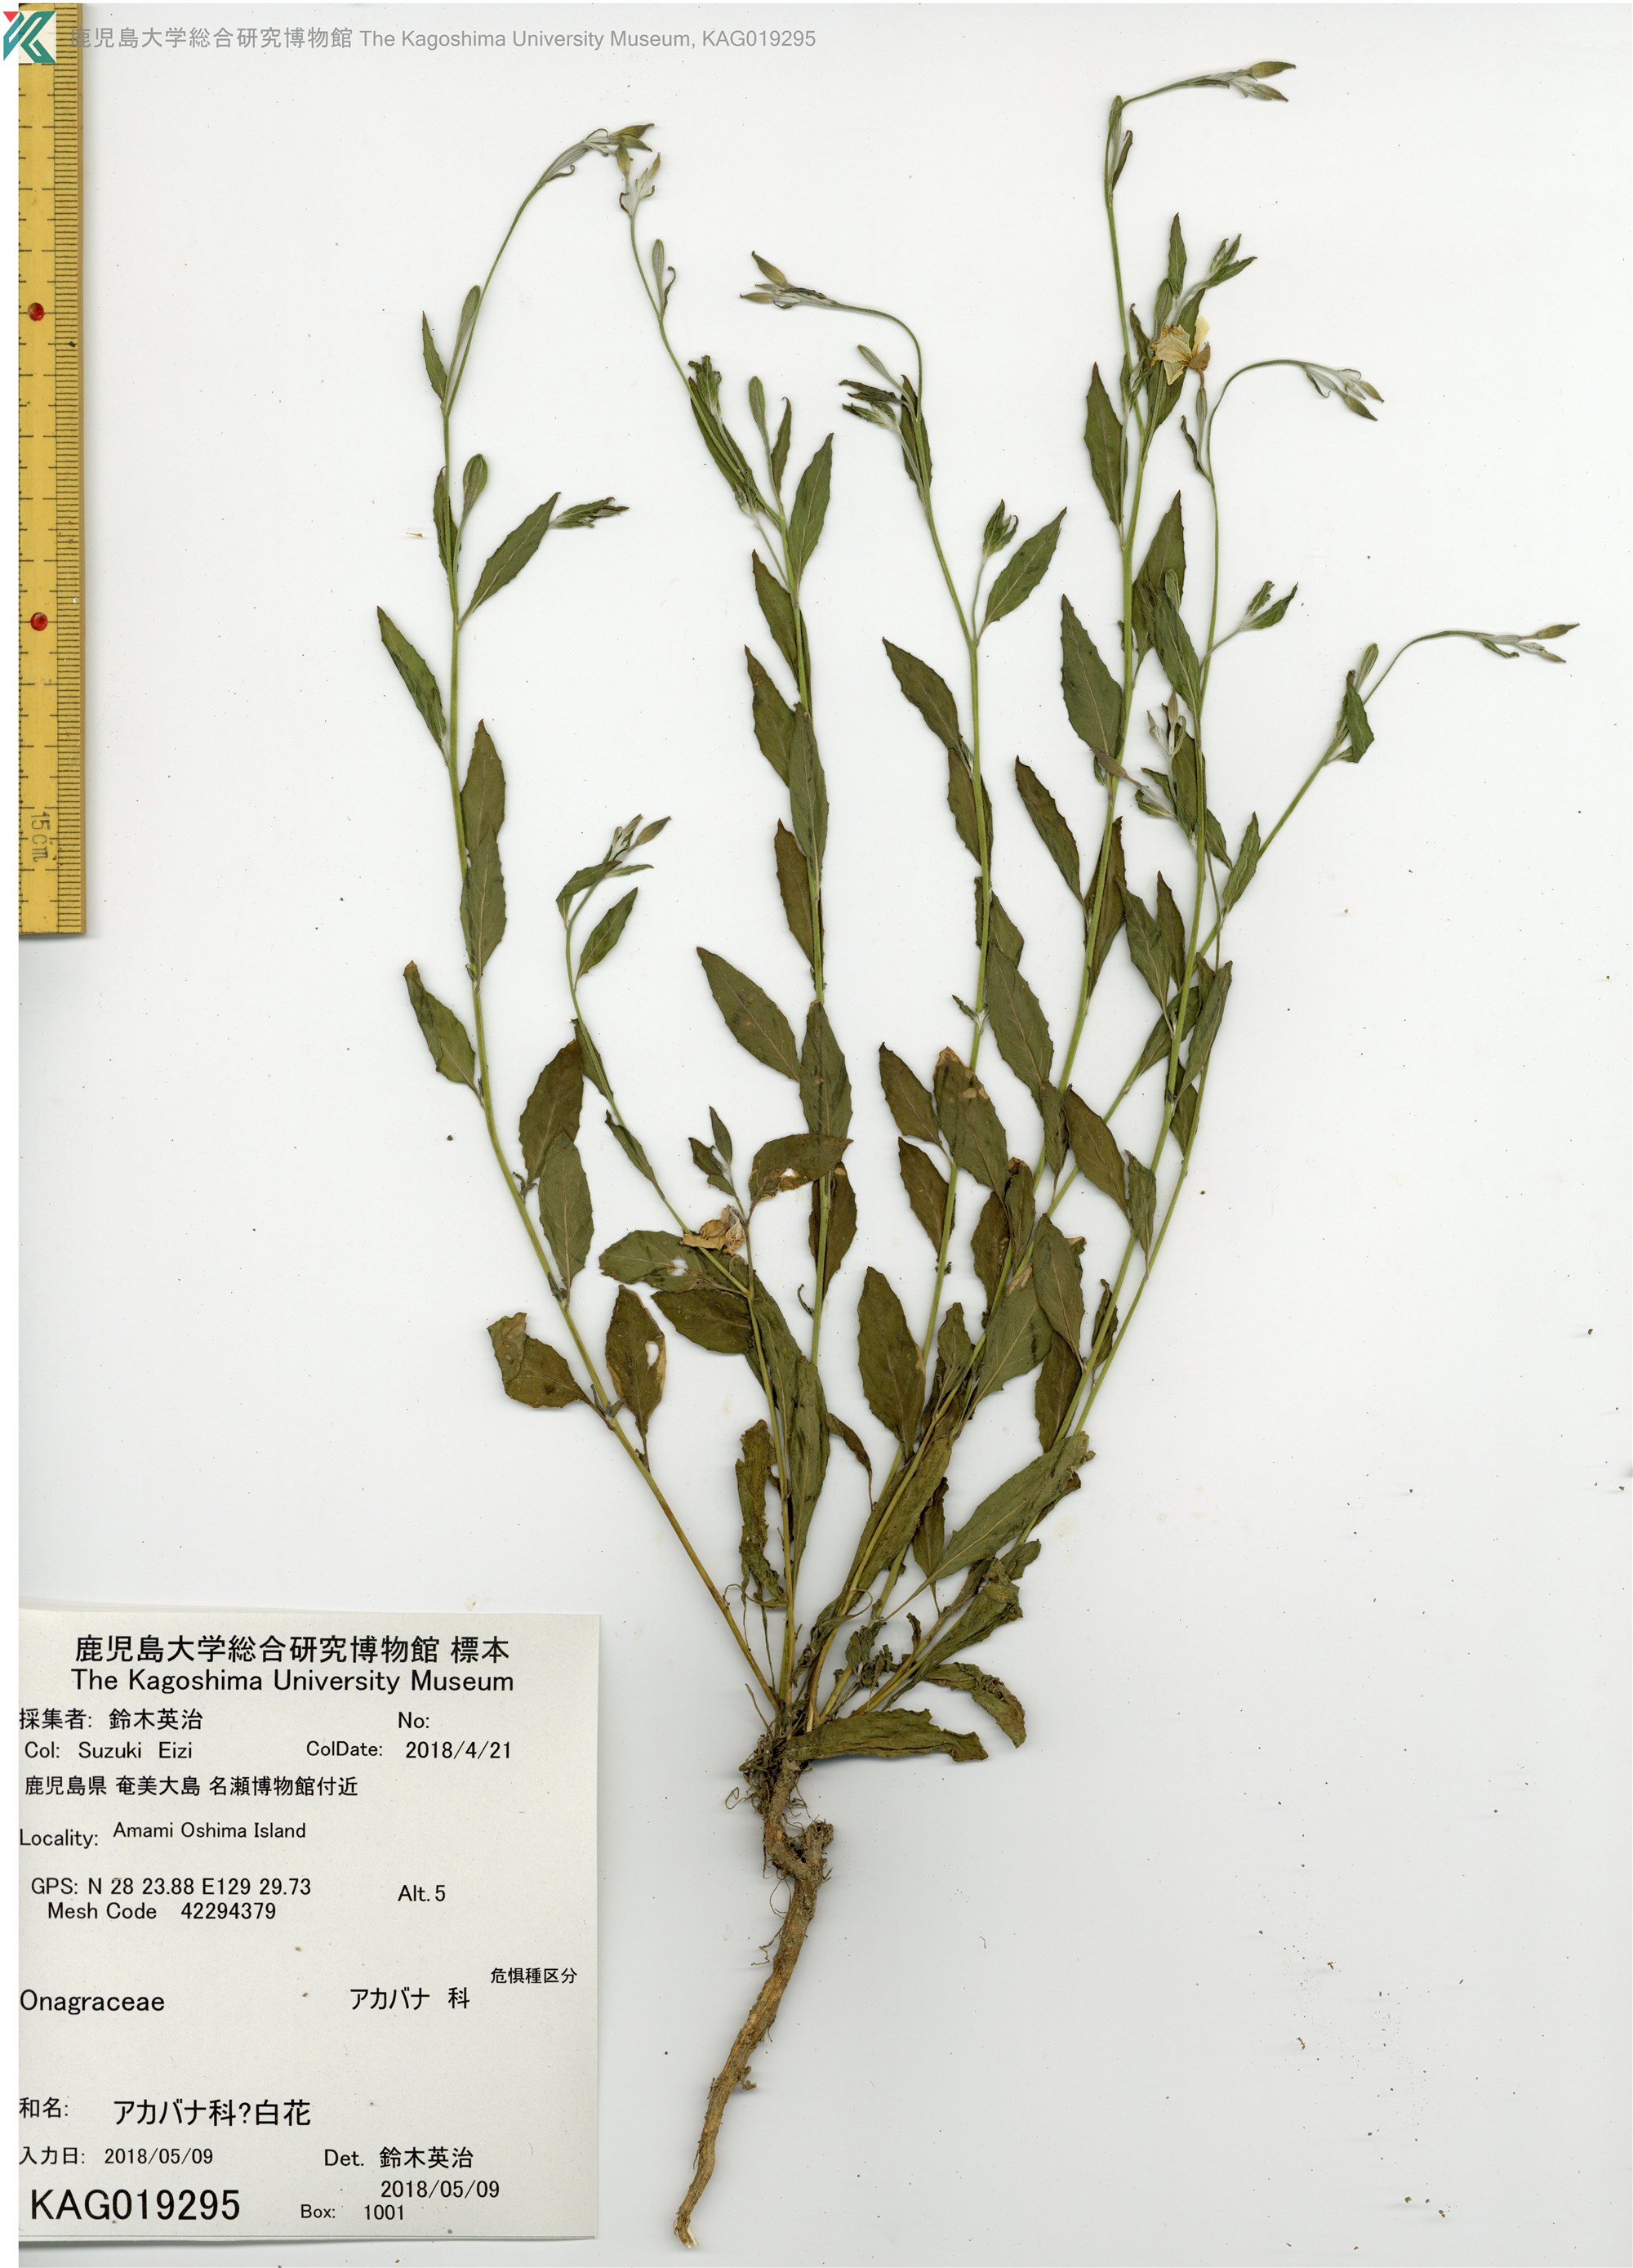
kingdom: Plantae
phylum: Tracheophyta
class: Magnoliopsida
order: Myrtales
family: Onagraceae
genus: Oenothera
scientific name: Oenothera rosea
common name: Rosy evening-primrose
